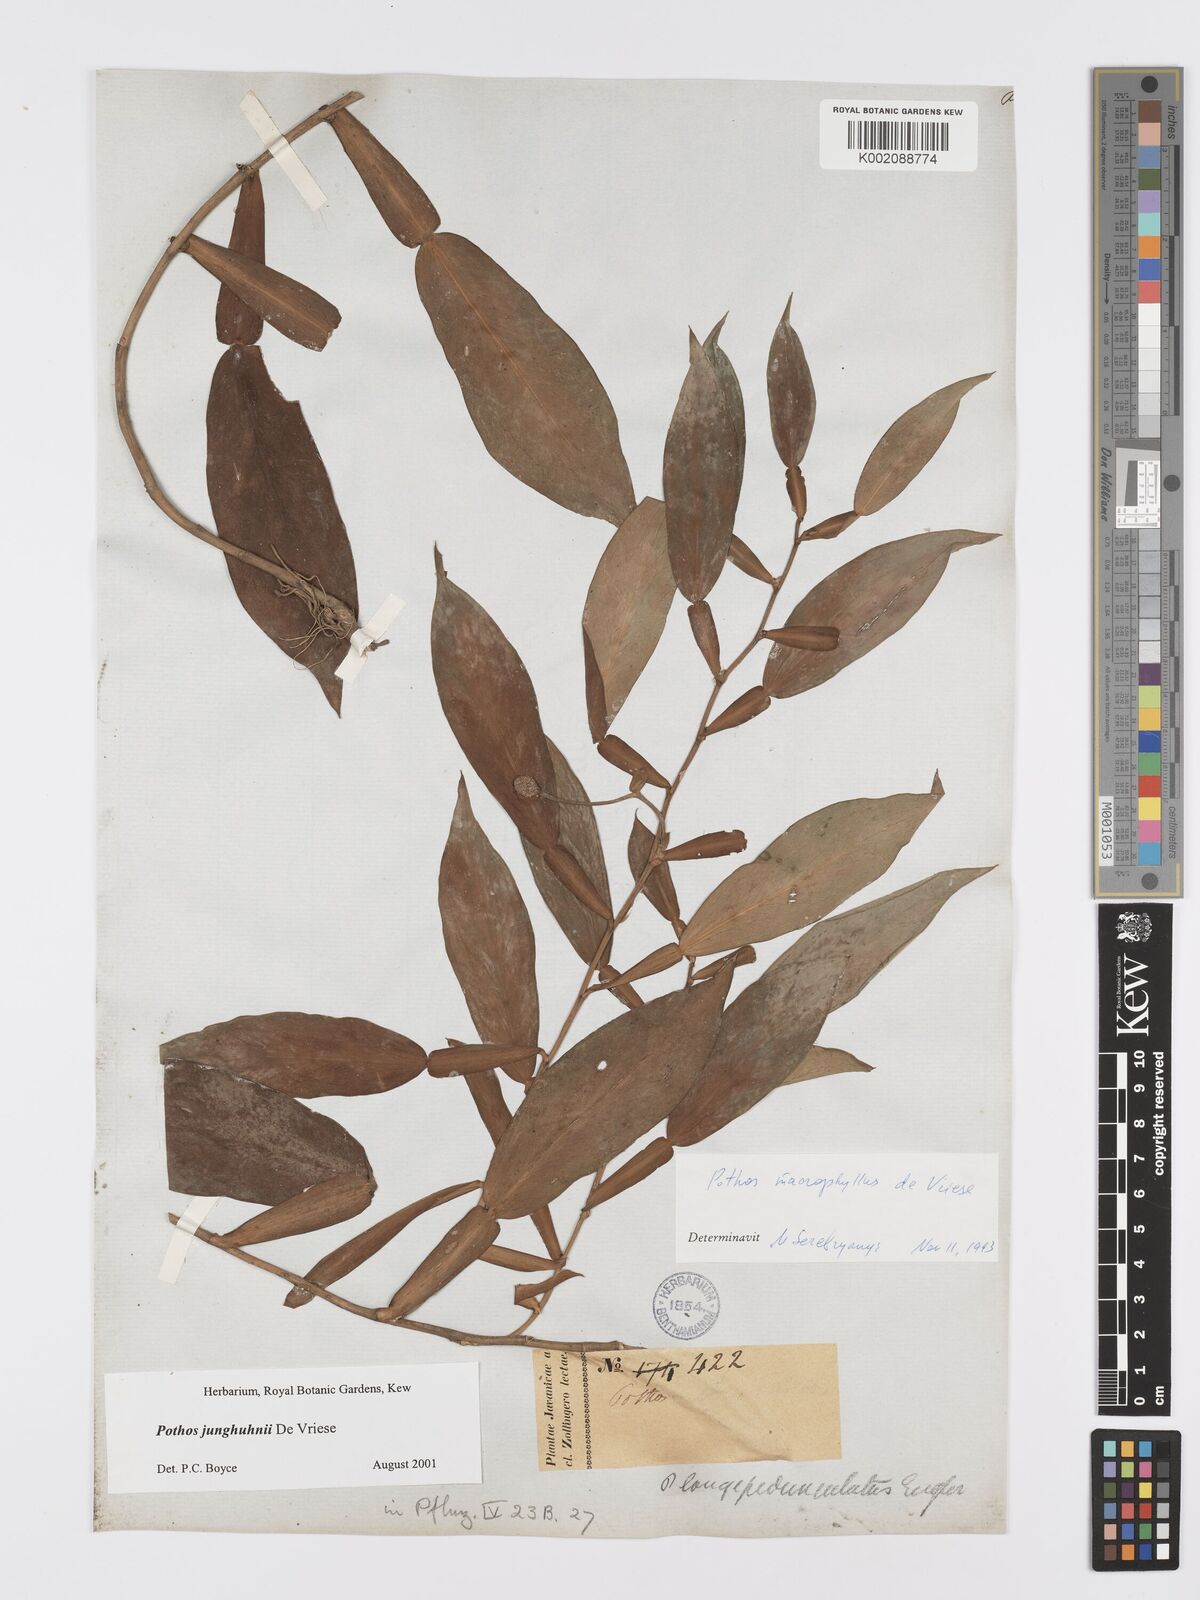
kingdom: Plantae
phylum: Tracheophyta
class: Liliopsida
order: Alismatales
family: Araceae
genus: Pothos
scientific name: Pothos junghuhnii
